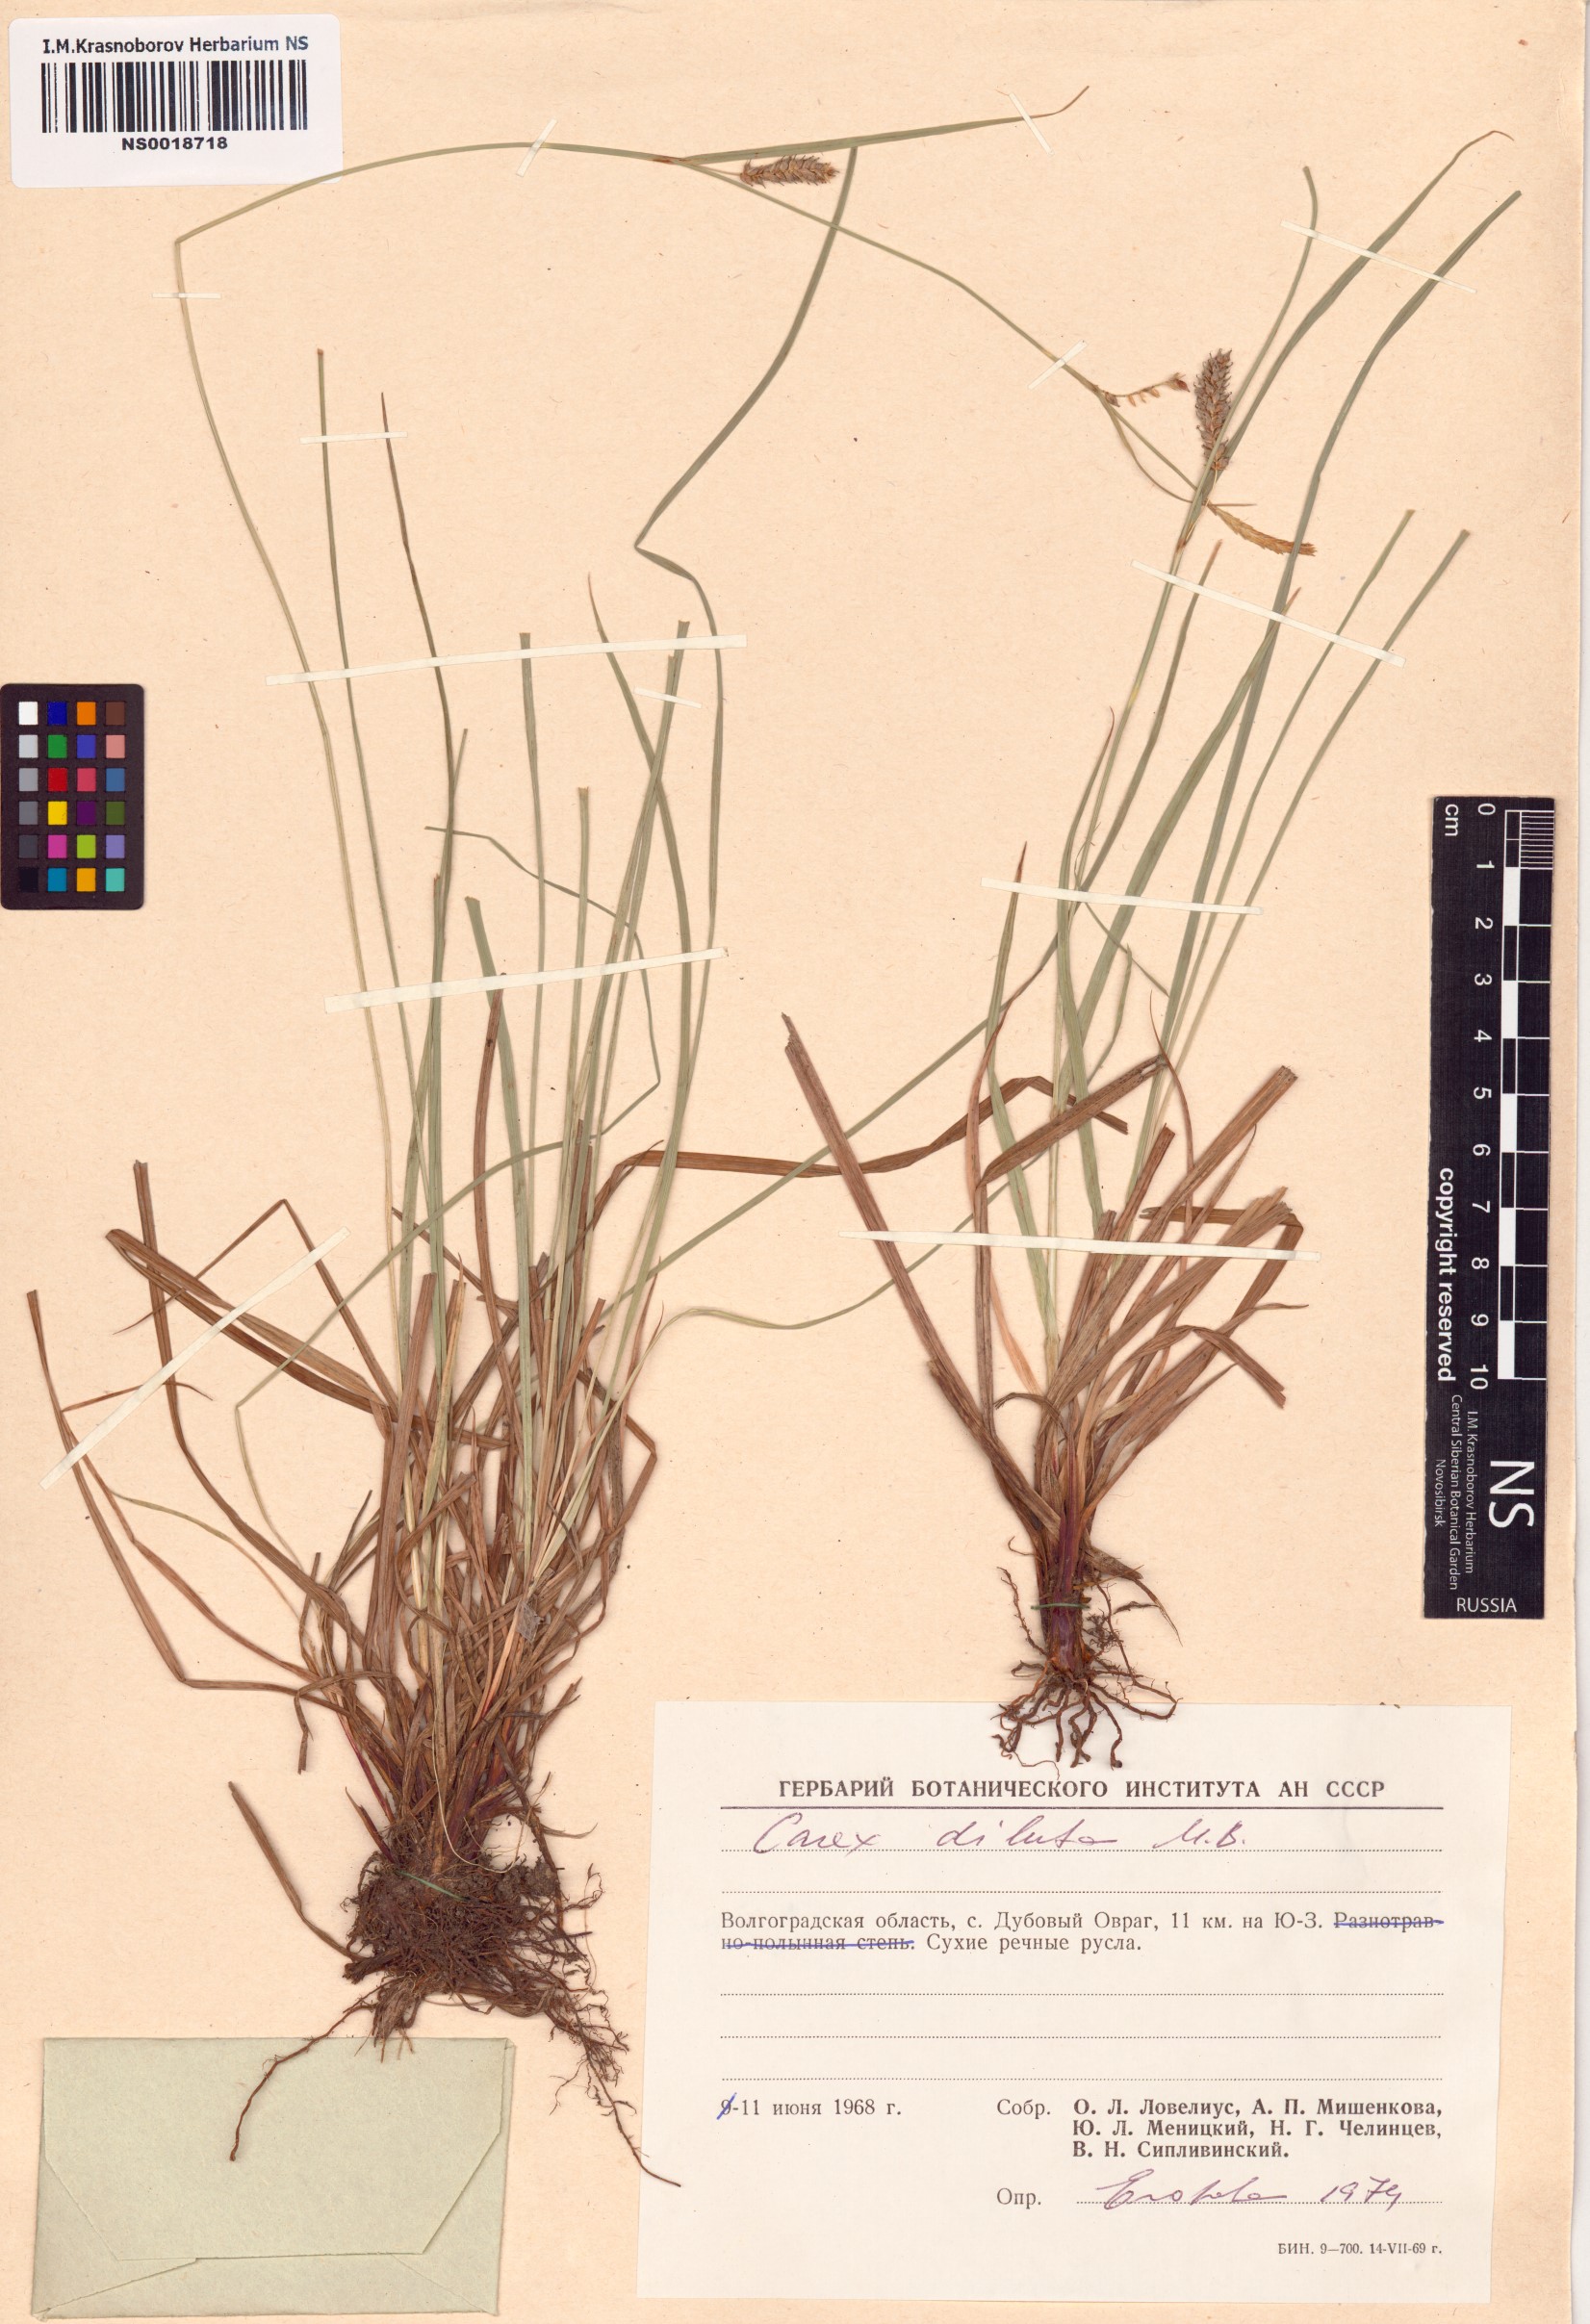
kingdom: Plantae
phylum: Tracheophyta
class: Liliopsida
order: Poales
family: Cyperaceae
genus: Carex
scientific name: Carex diluta
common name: Sedge
